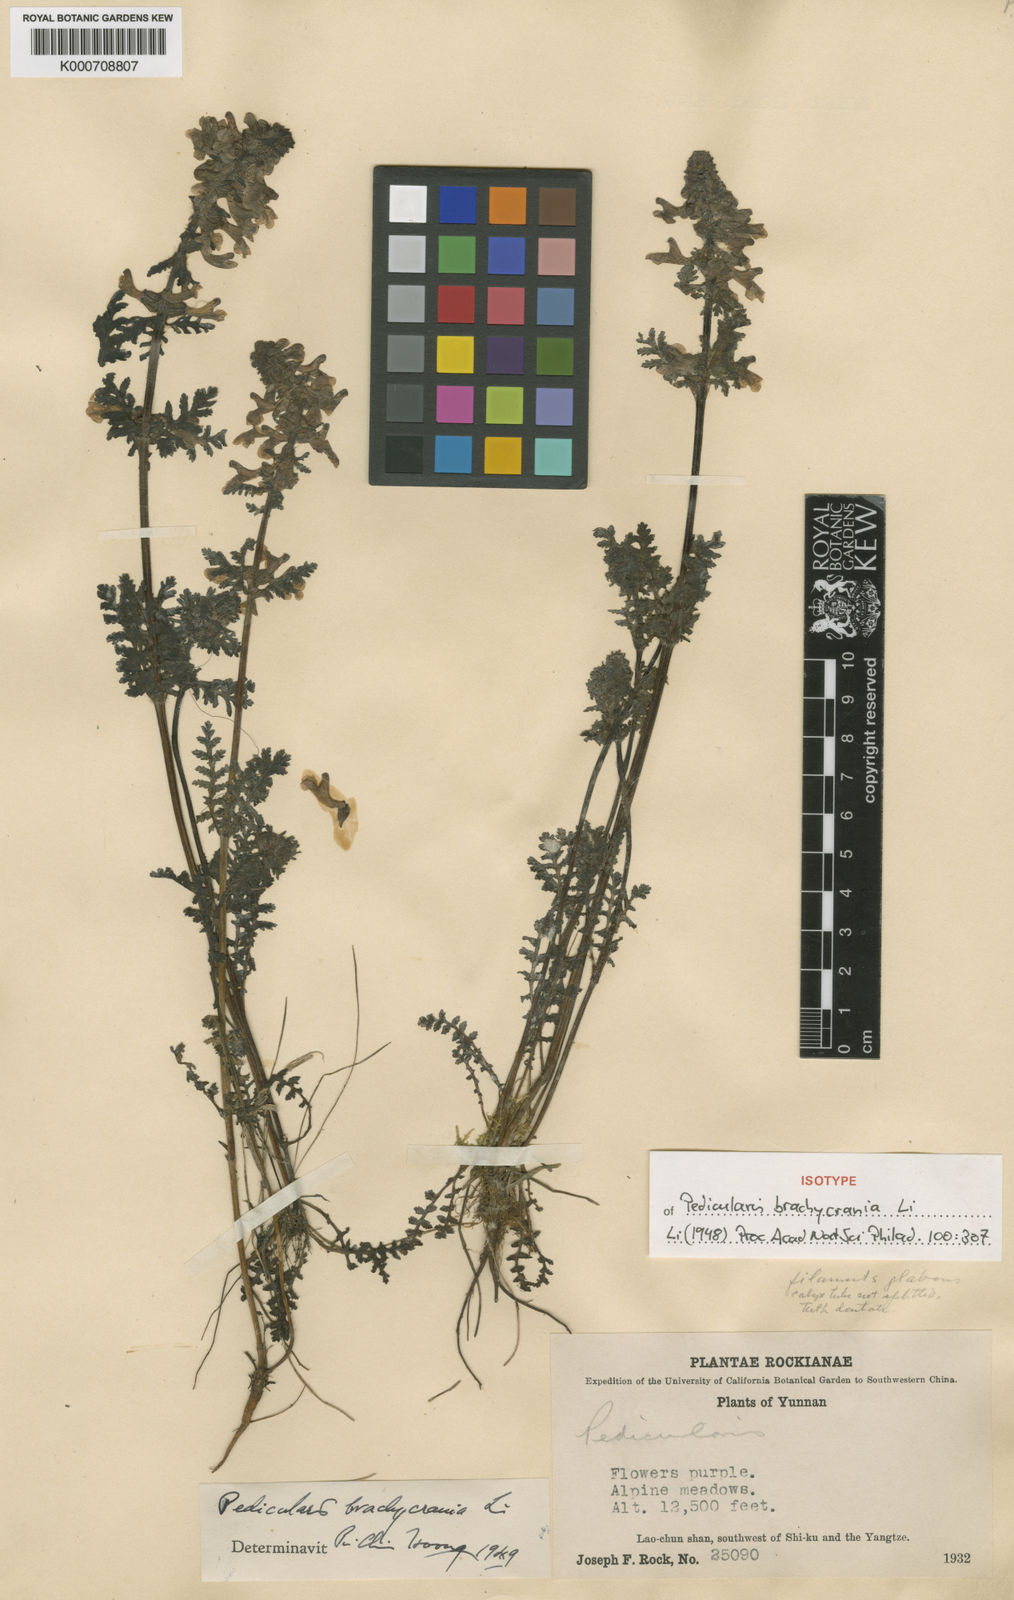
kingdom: Plantae
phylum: Tracheophyta
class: Magnoliopsida
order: Lamiales
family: Orobanchaceae
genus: Pedicularis
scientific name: Pedicularis brachycrania
